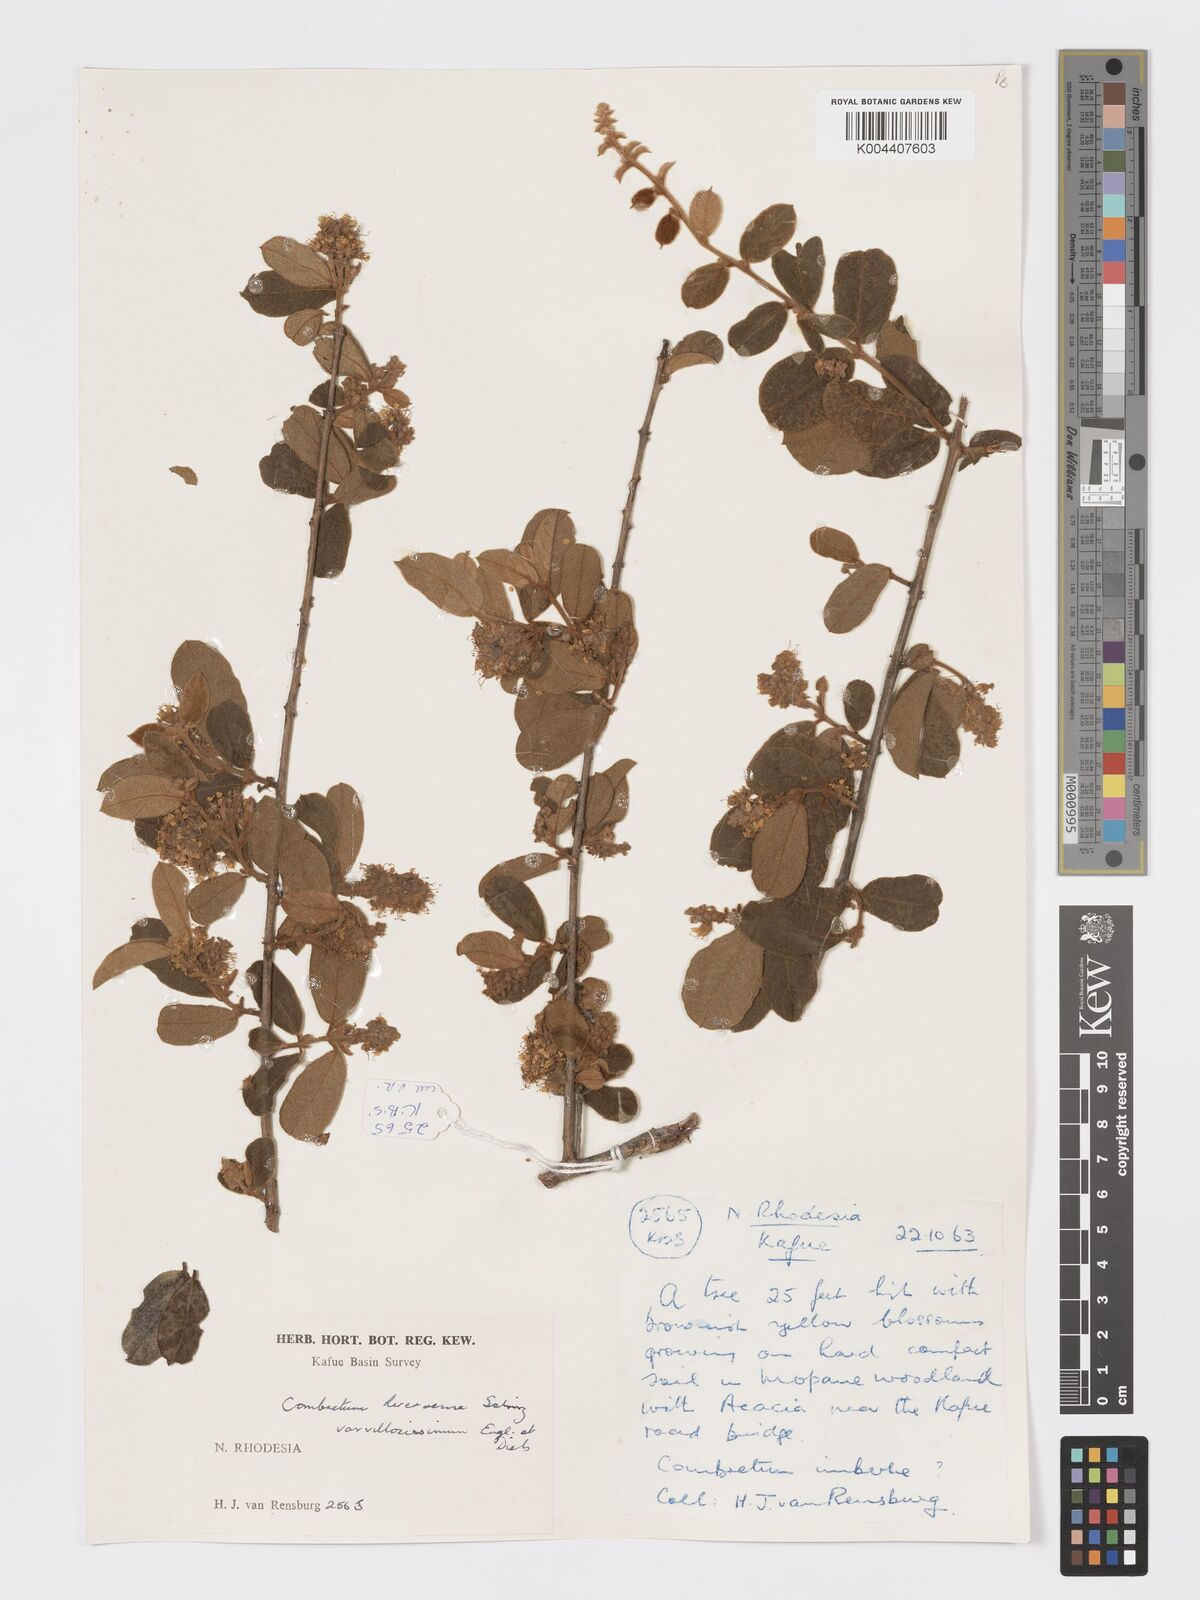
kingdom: Plantae
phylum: Tracheophyta
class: Magnoliopsida
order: Myrtales
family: Combretaceae
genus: Combretum
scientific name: Combretum hereroense
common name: Russet bushwillow
